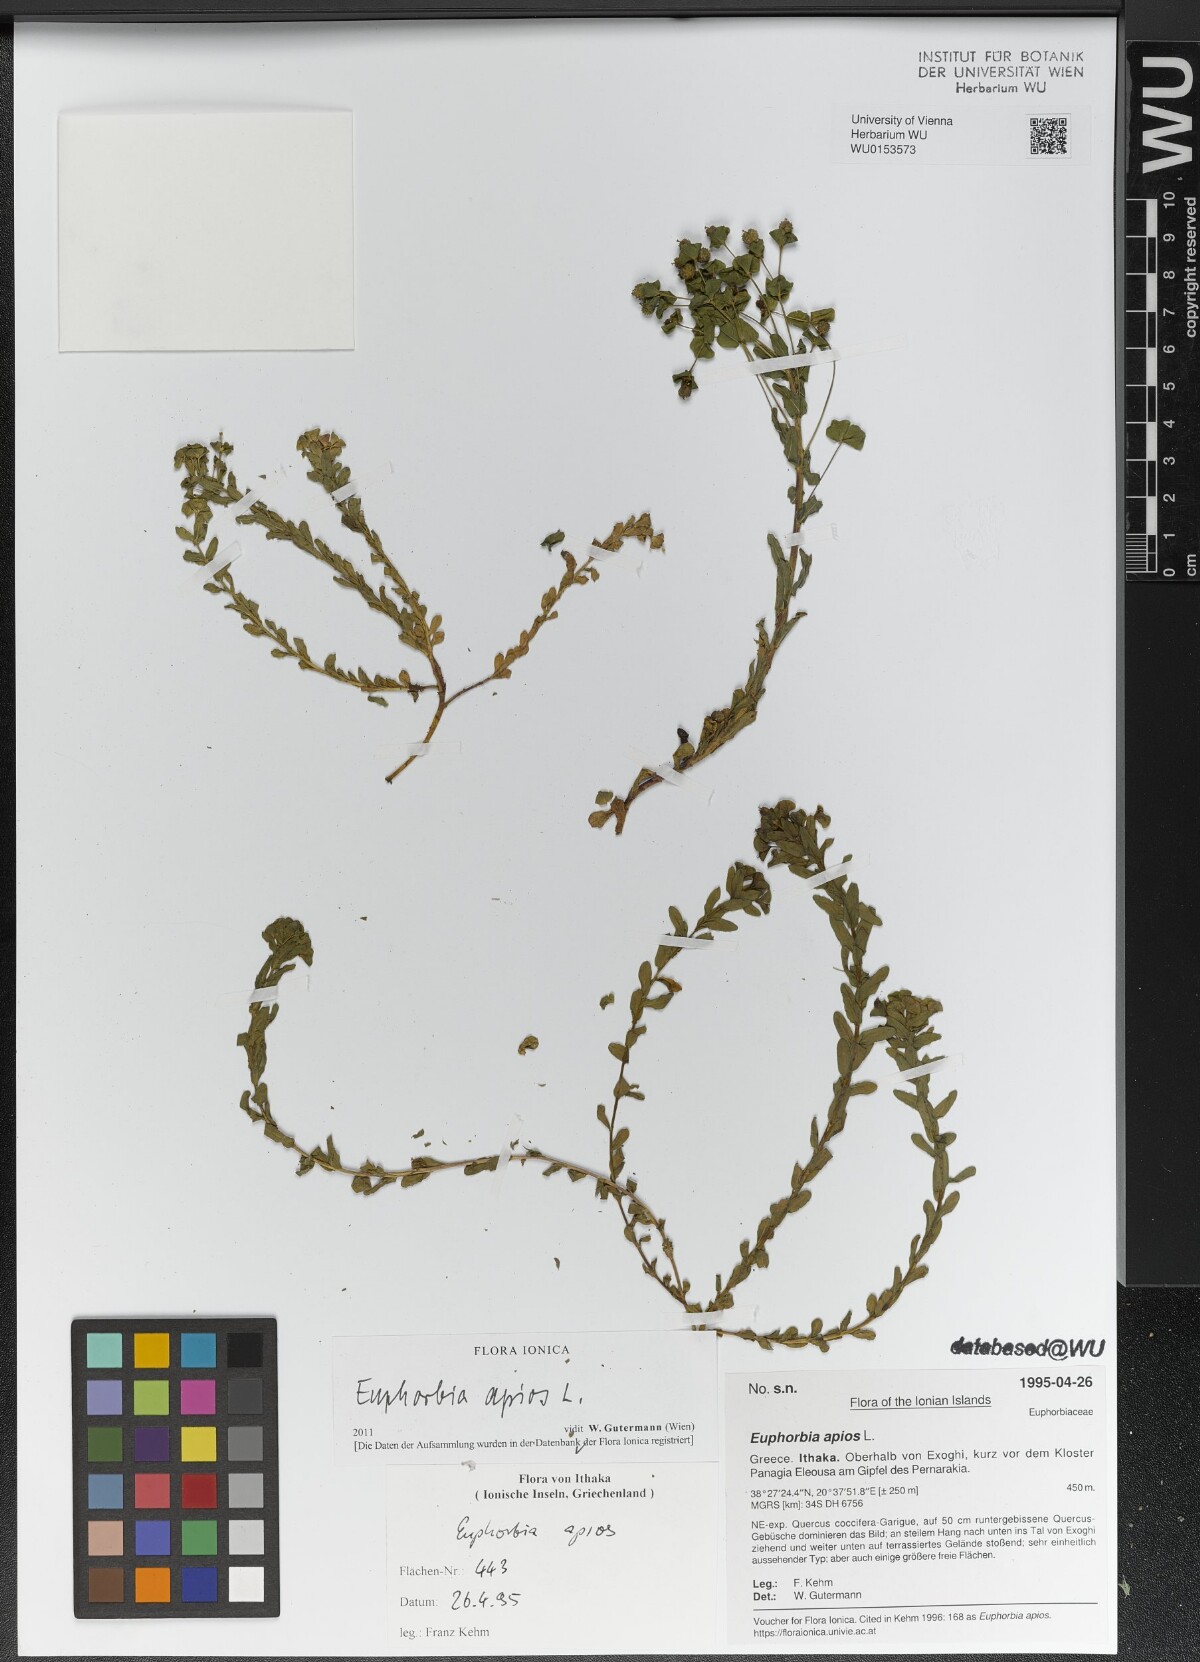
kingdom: Plantae
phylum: Tracheophyta
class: Magnoliopsida
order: Malpighiales
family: Euphorbiaceae
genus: Euphorbia
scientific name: Euphorbia apios
